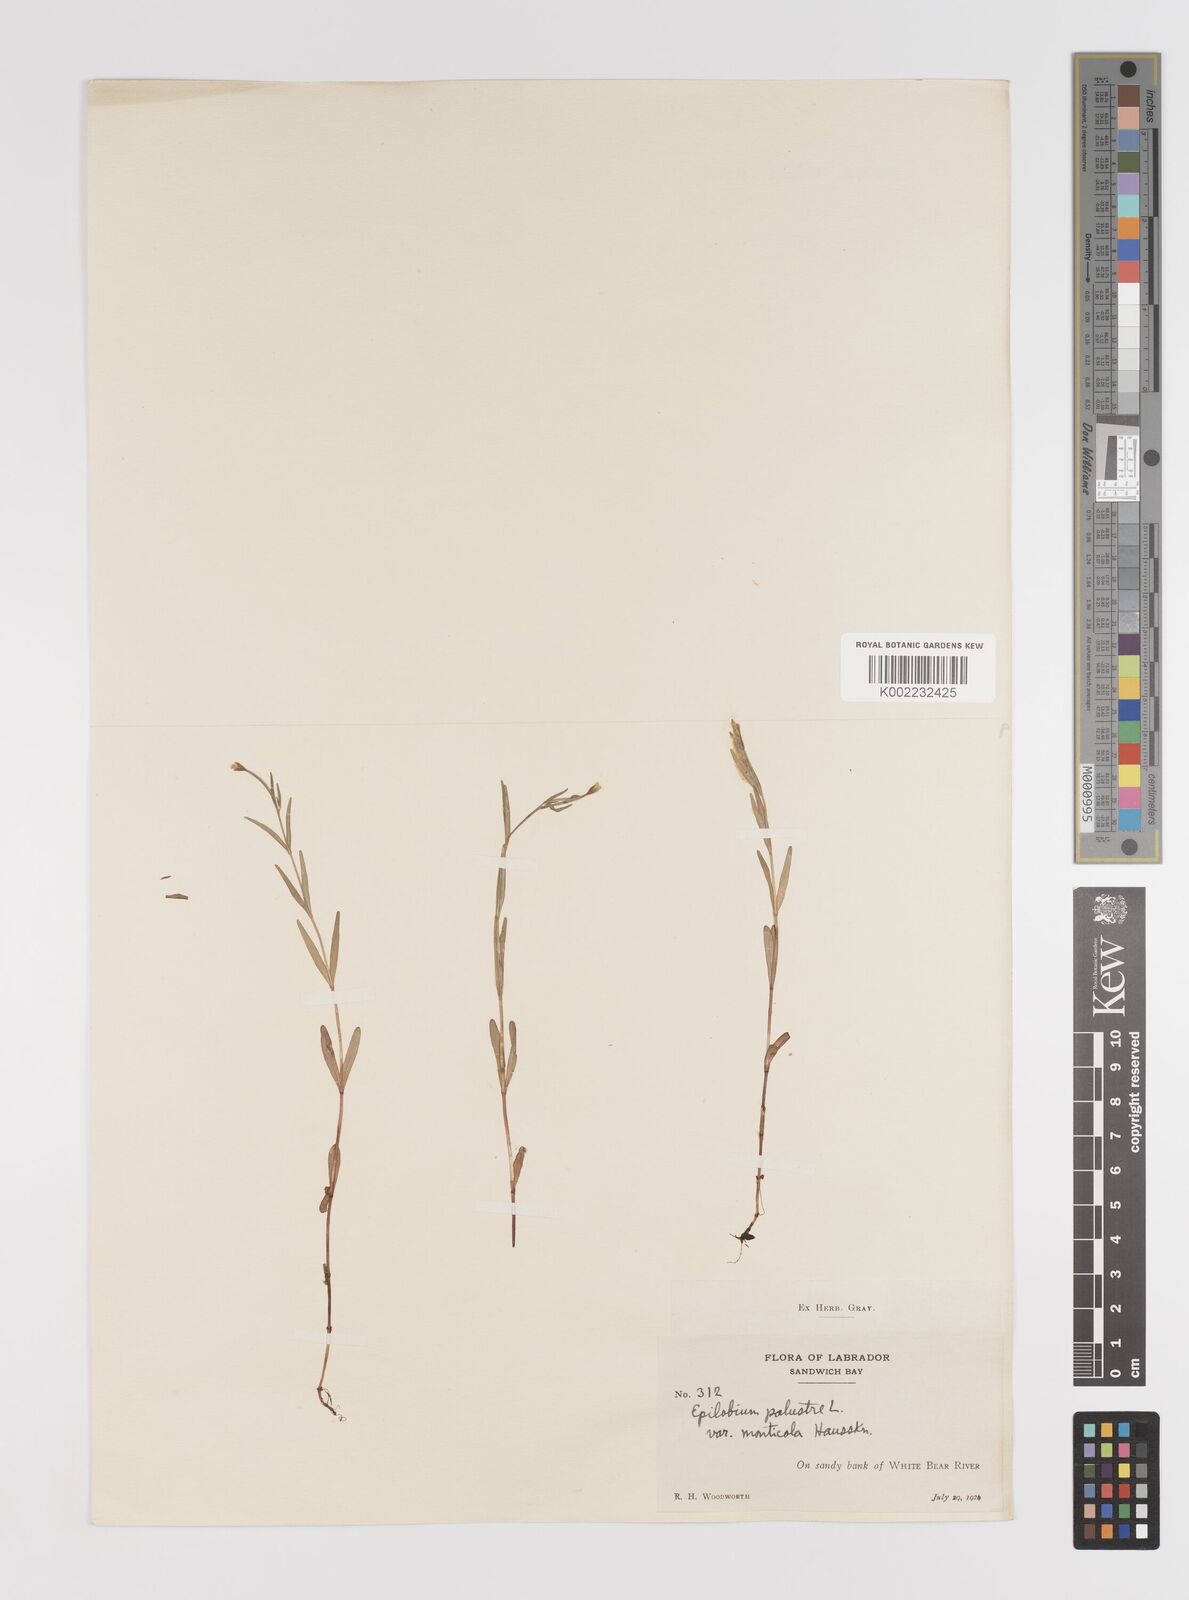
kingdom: Plantae
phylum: Tracheophyta
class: Magnoliopsida
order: Myrtales
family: Onagraceae
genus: Epilobium
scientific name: Epilobium palustre
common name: Marsh willowherb
